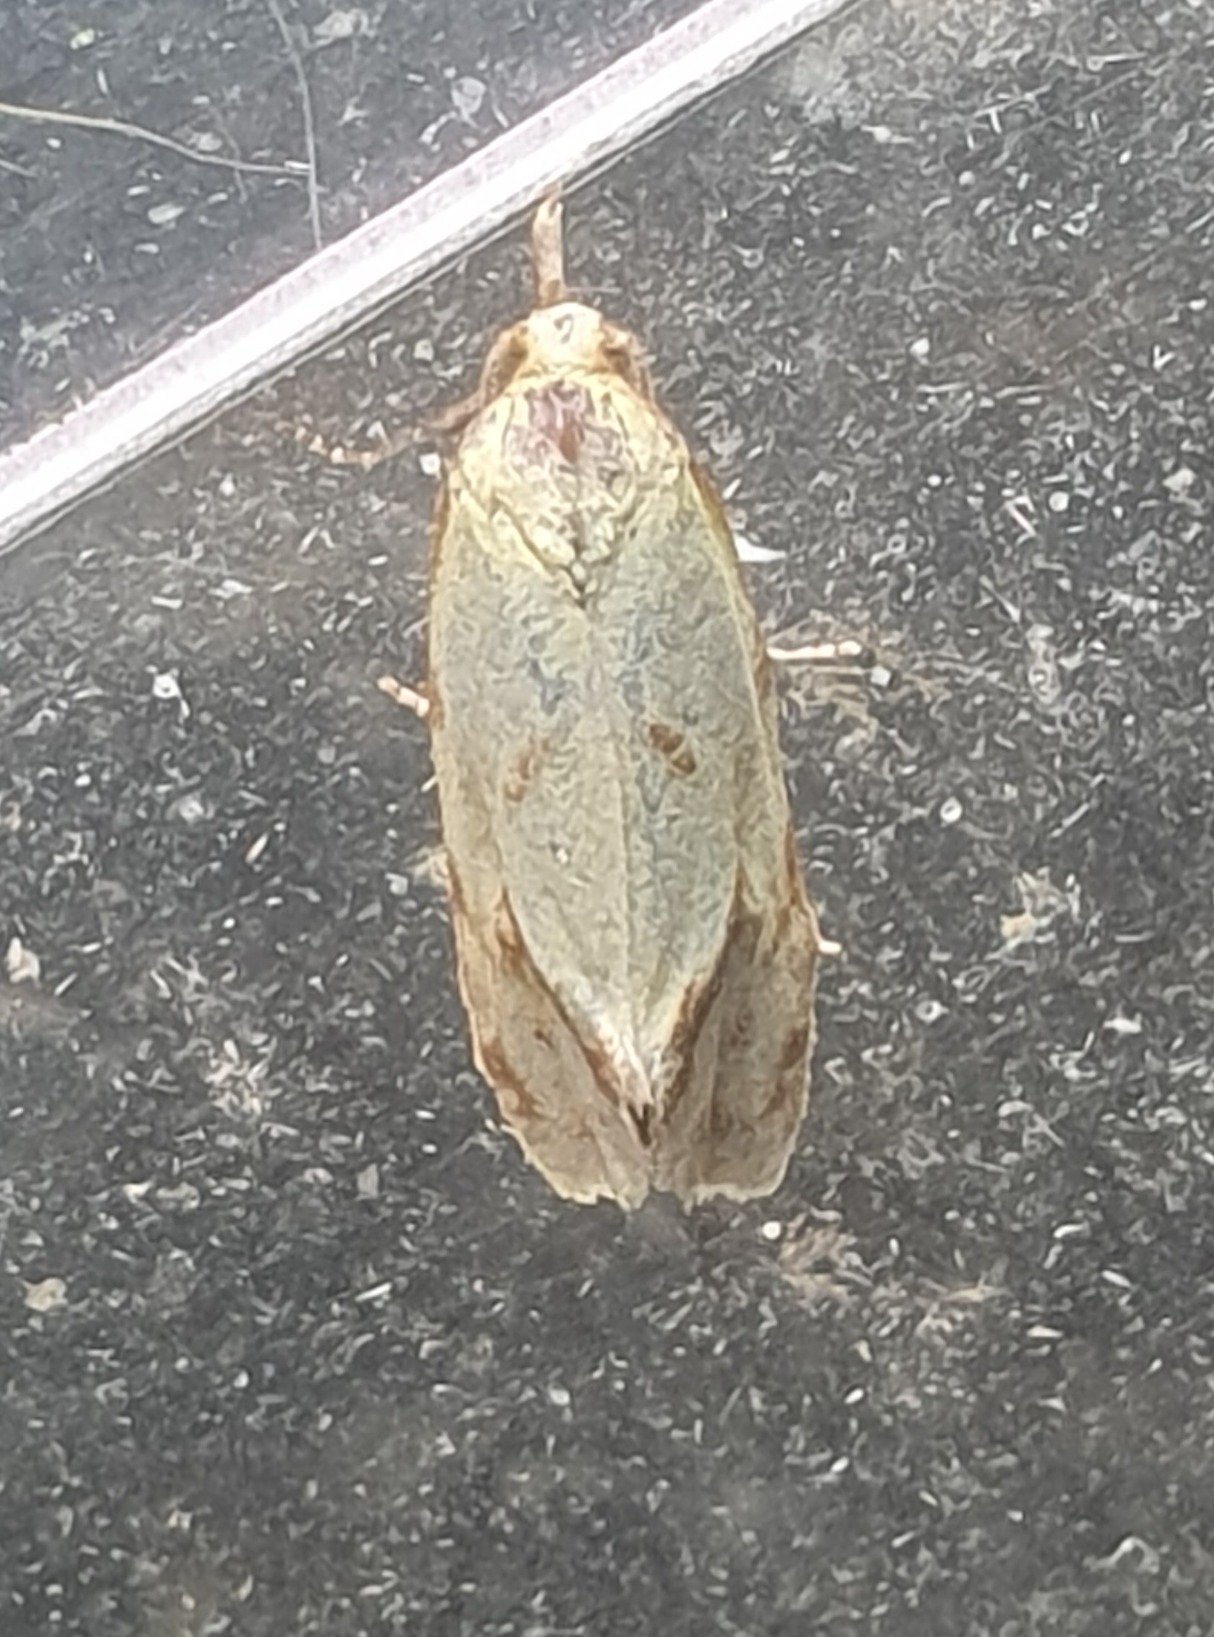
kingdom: Animalia
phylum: Arthropoda
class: Insecta
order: Lepidoptera
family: Tortricidae
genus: Agapeta
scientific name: Agapeta hamana
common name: Tidselgulvikler
